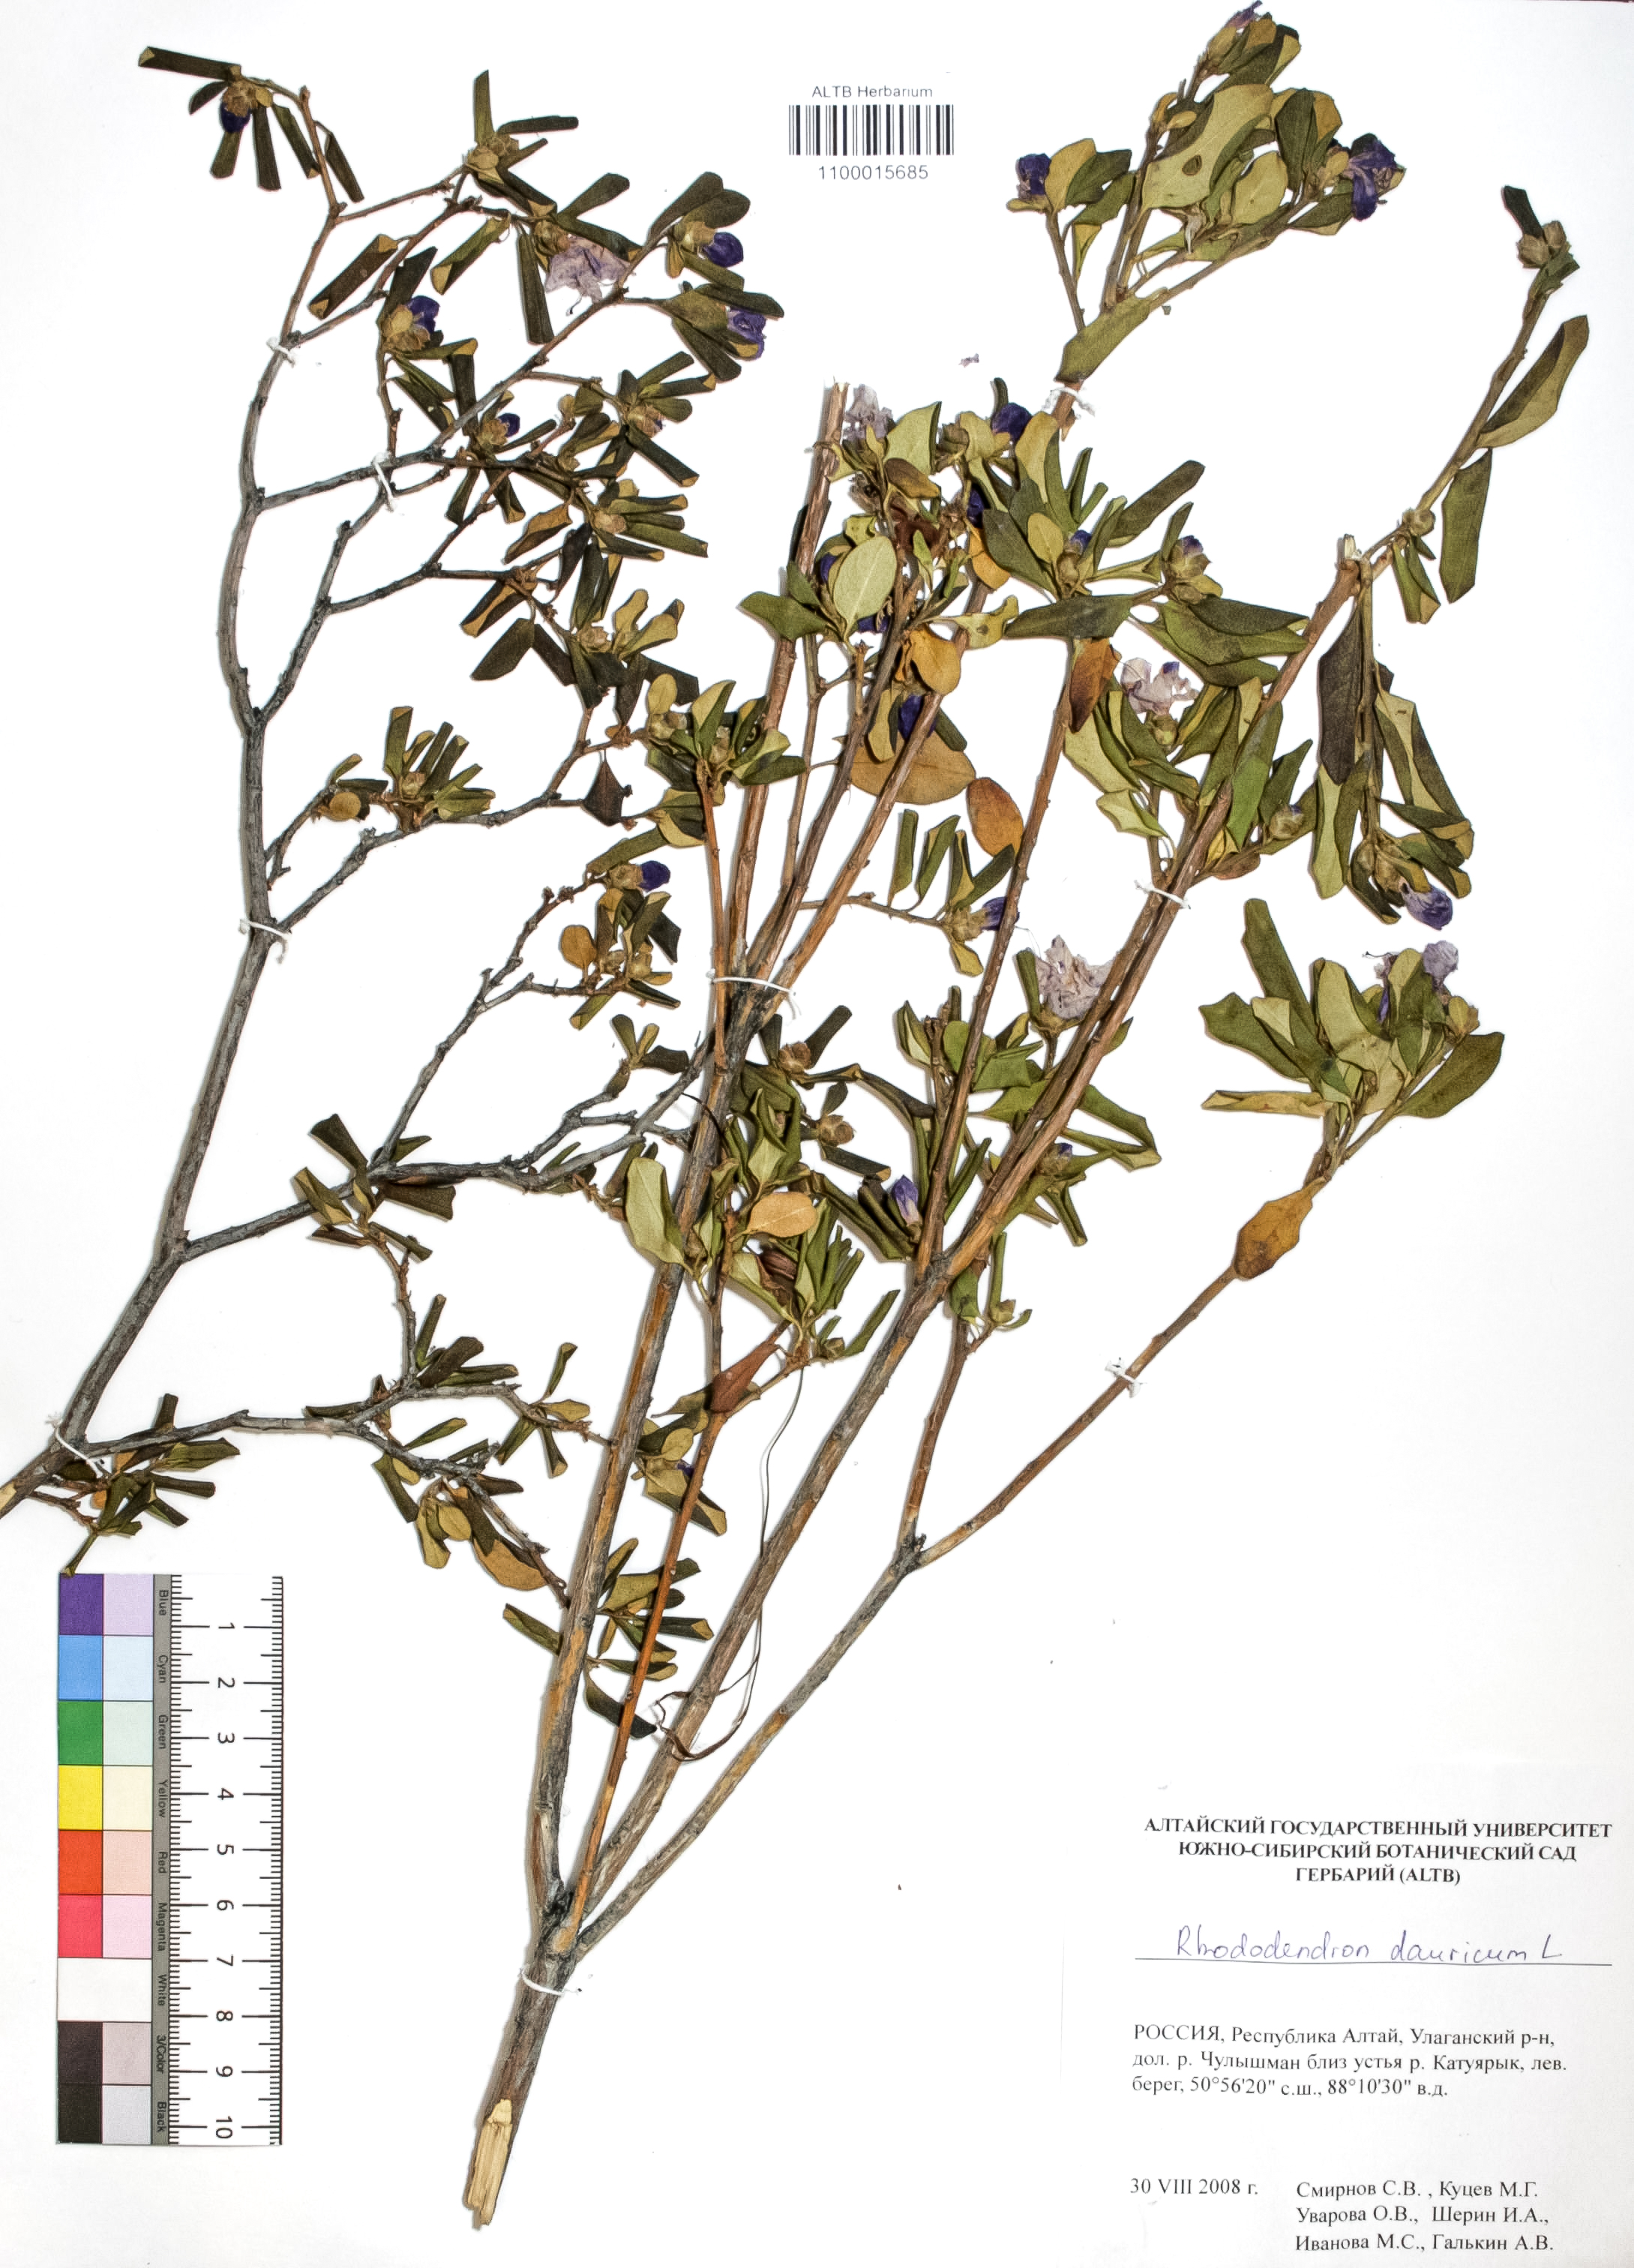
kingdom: Plantae
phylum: Tracheophyta
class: Magnoliopsida
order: Ericales
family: Ericaceae
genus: Rhododendron
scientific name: Rhododendron dahuricum
